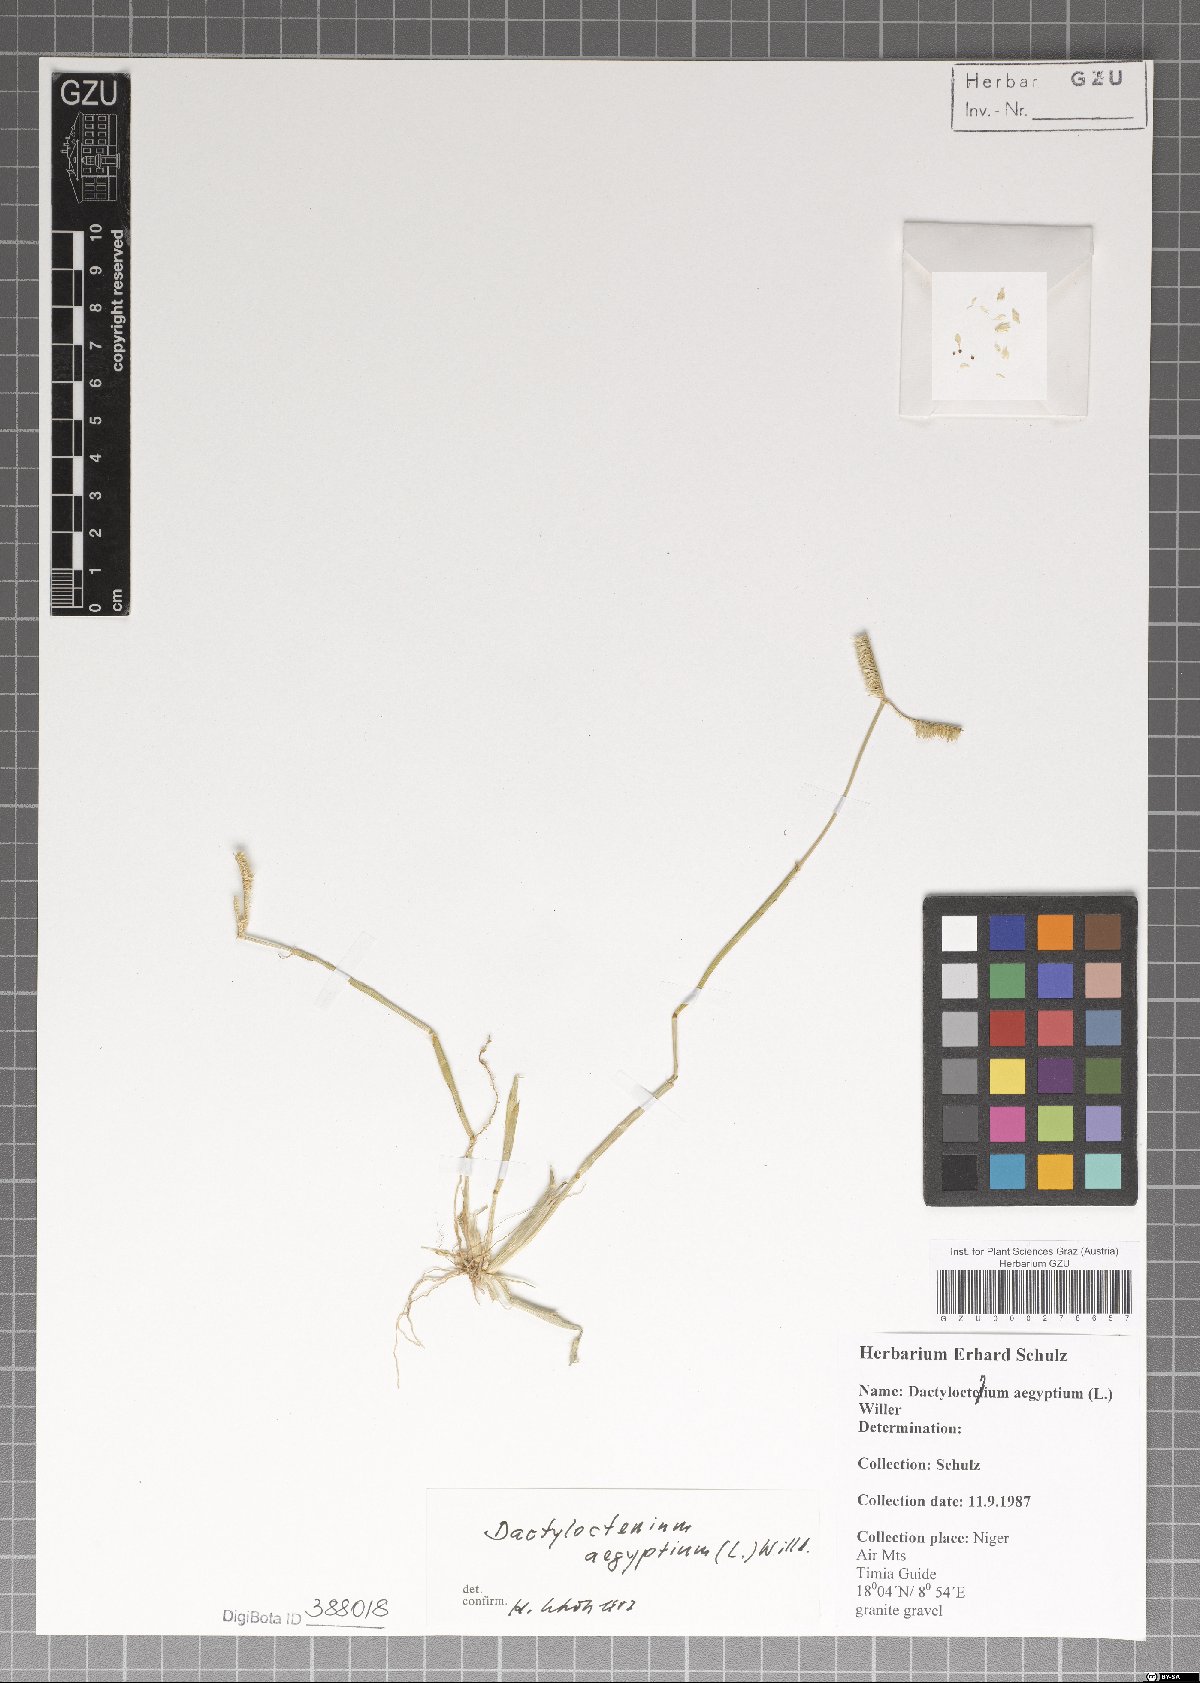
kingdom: Plantae
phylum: Tracheophyta
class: Liliopsida
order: Poales
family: Poaceae
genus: Dactyloctenium
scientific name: Dactyloctenium aegyptium
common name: Egyptian grass
